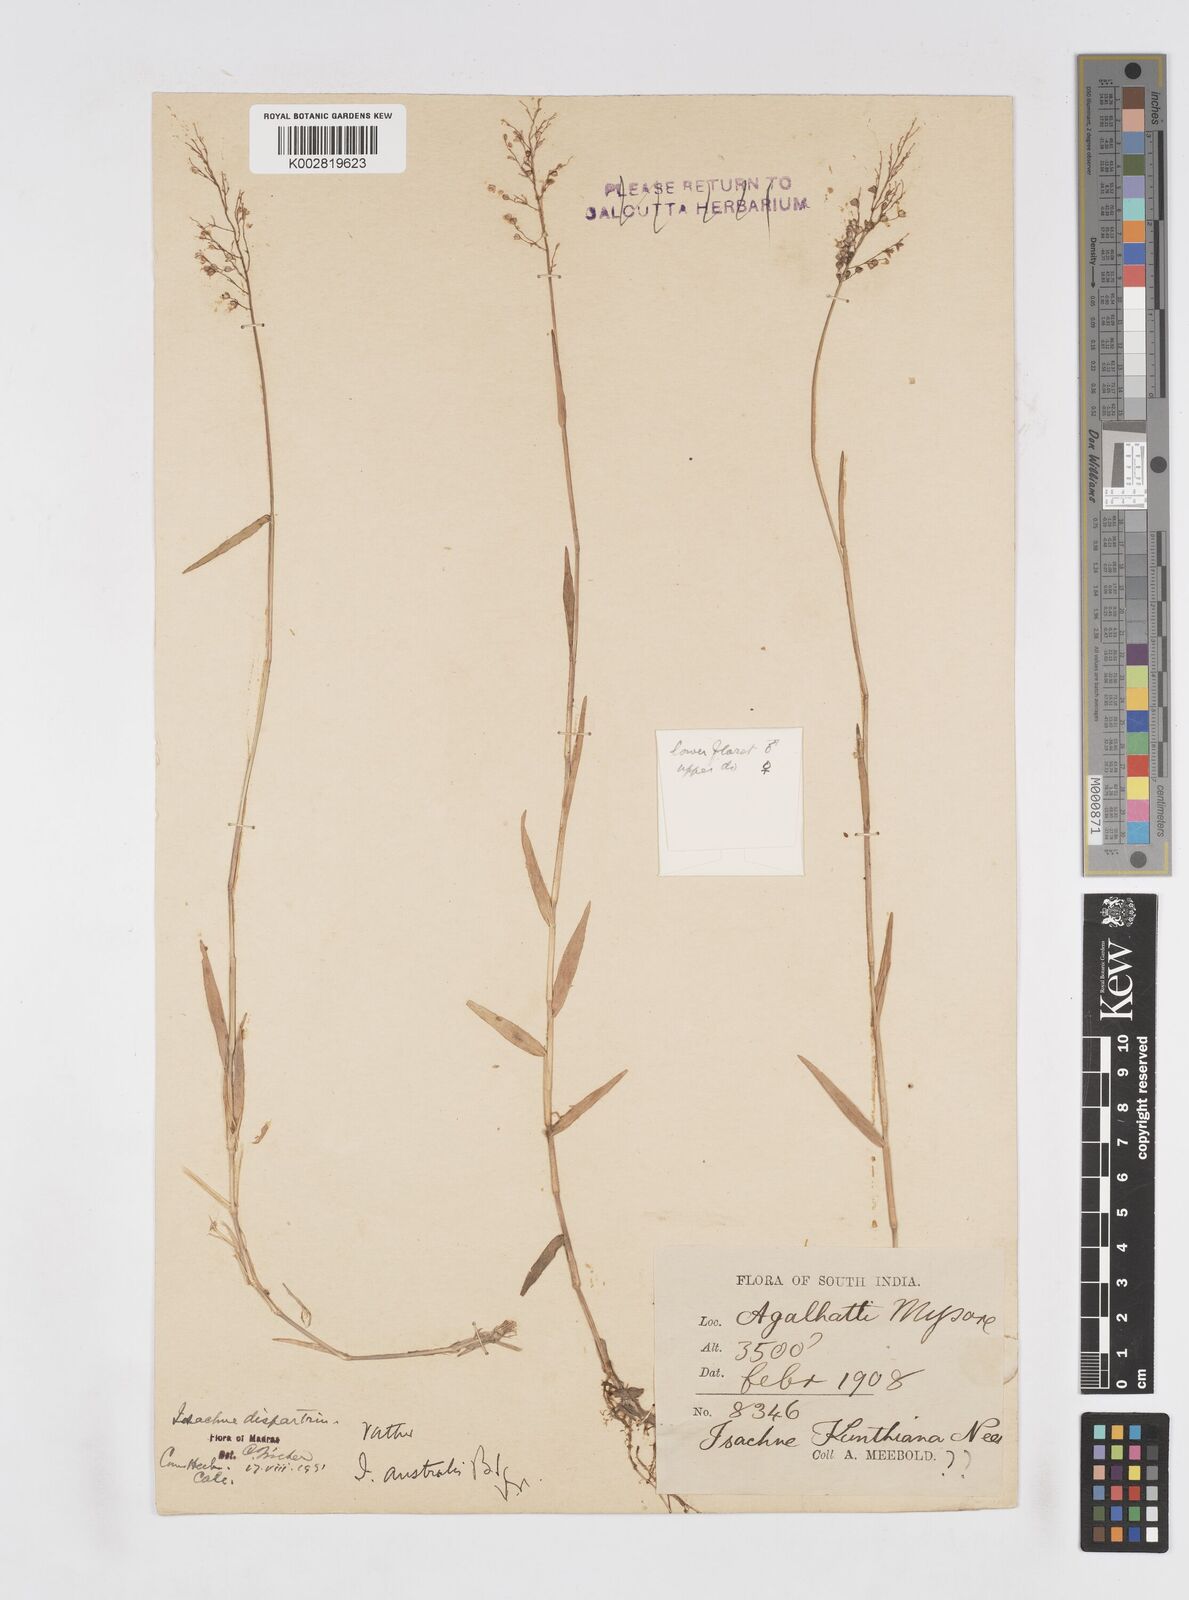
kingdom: Plantae
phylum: Tracheophyta
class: Liliopsida
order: Poales
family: Poaceae
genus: Isachne
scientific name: Isachne globosa
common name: Swamp millet
